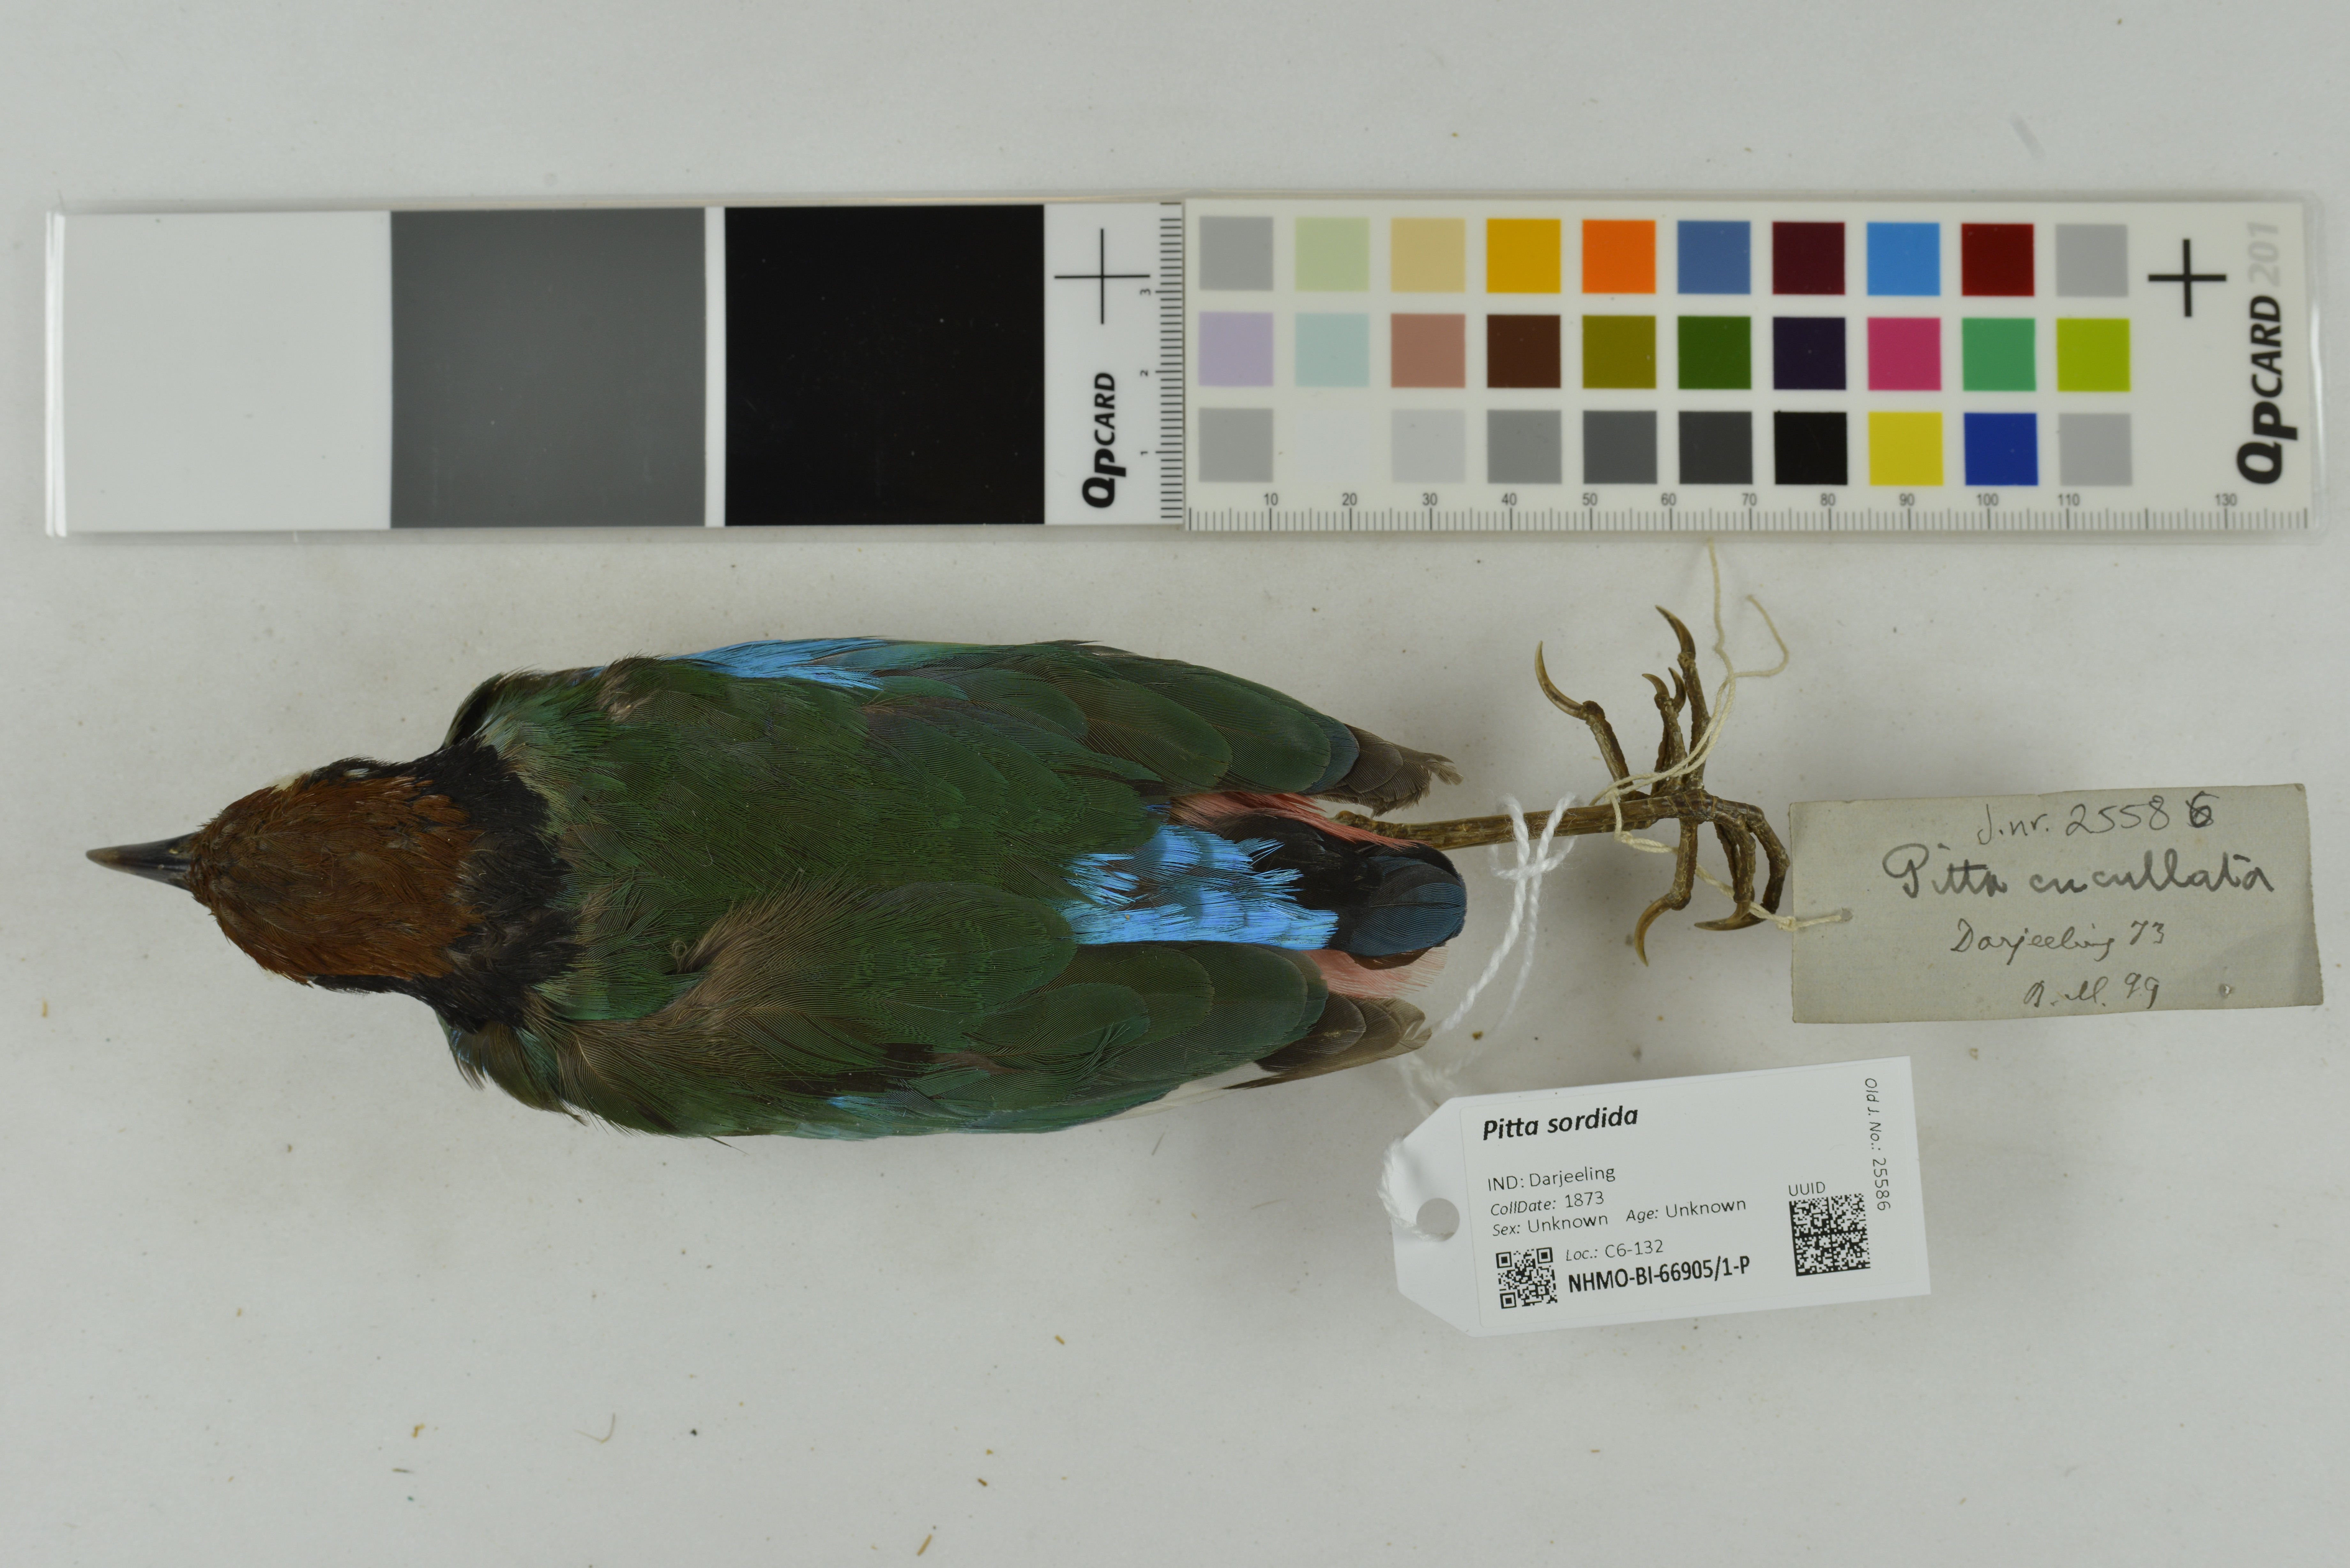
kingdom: Animalia
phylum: Chordata
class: Aves
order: Passeriformes
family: Pittidae
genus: Pitta
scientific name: Pitta sordida
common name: Hooded pitta
